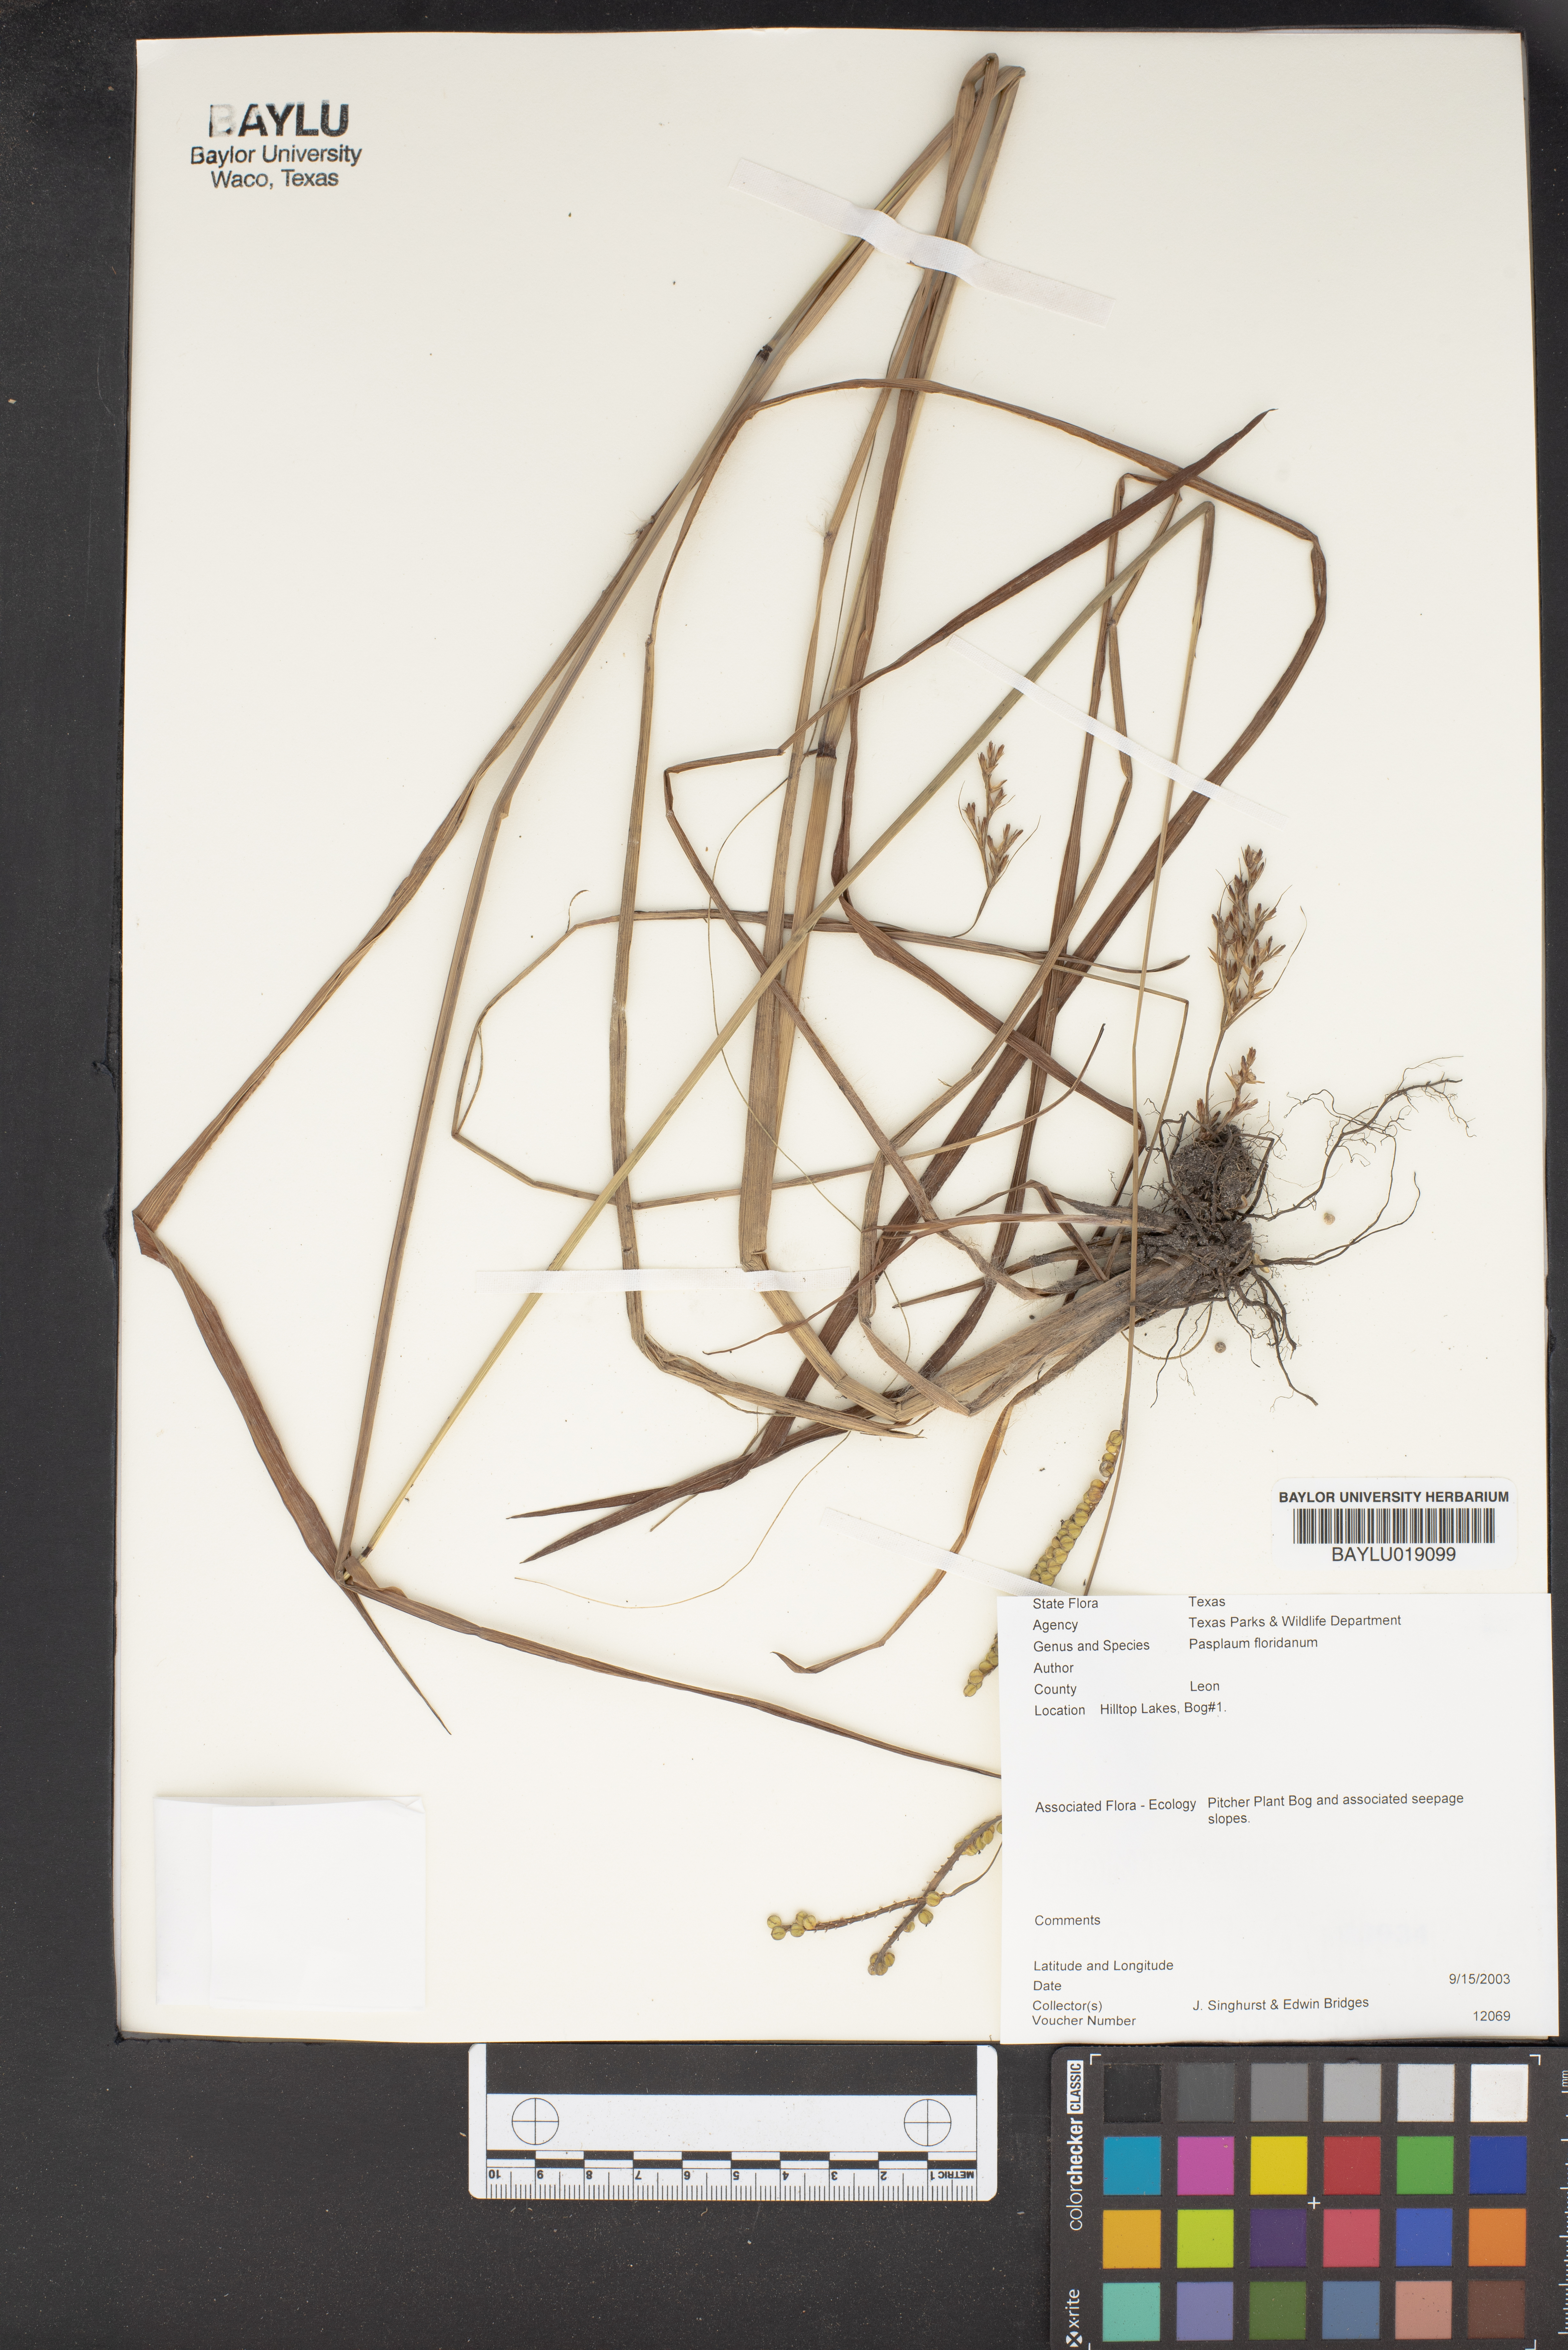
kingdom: Plantae
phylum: Tracheophyta
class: Liliopsida
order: Poales
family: Poaceae
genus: Paspalum
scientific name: Paspalum floridanum
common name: Florida paspalum
